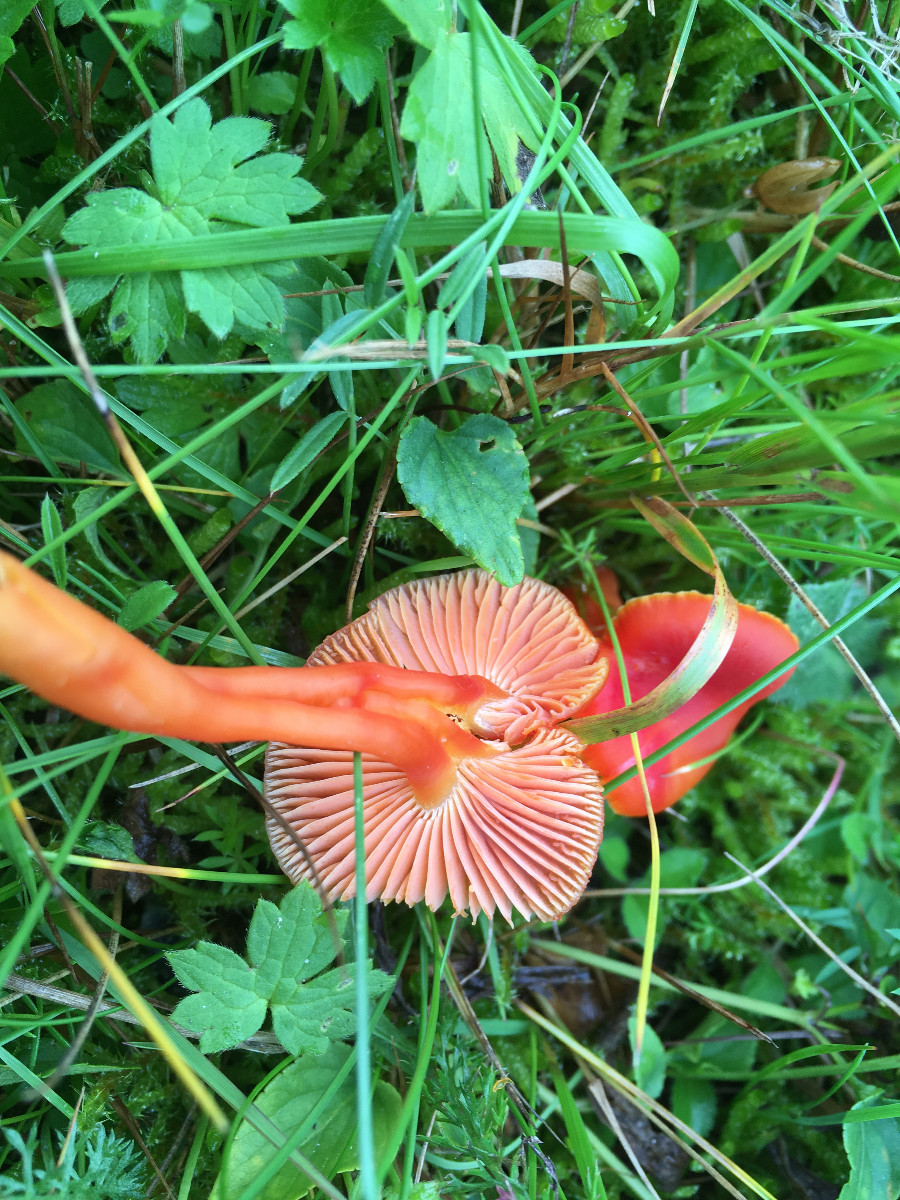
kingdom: Fungi
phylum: Basidiomycota
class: Agaricomycetes
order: Agaricales
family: Hygrophoraceae
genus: Hygrocybe
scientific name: Hygrocybe miniata
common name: mønje-vokshat
